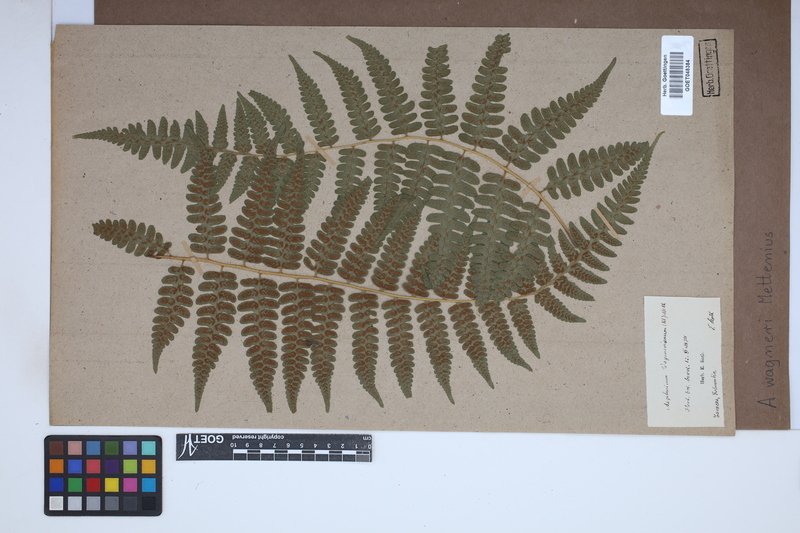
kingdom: Plantae
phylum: Tracheophyta
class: Polypodiopsida
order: Polypodiales
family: Aspleniaceae
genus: Asplenium
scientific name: Asplenium monanthes
